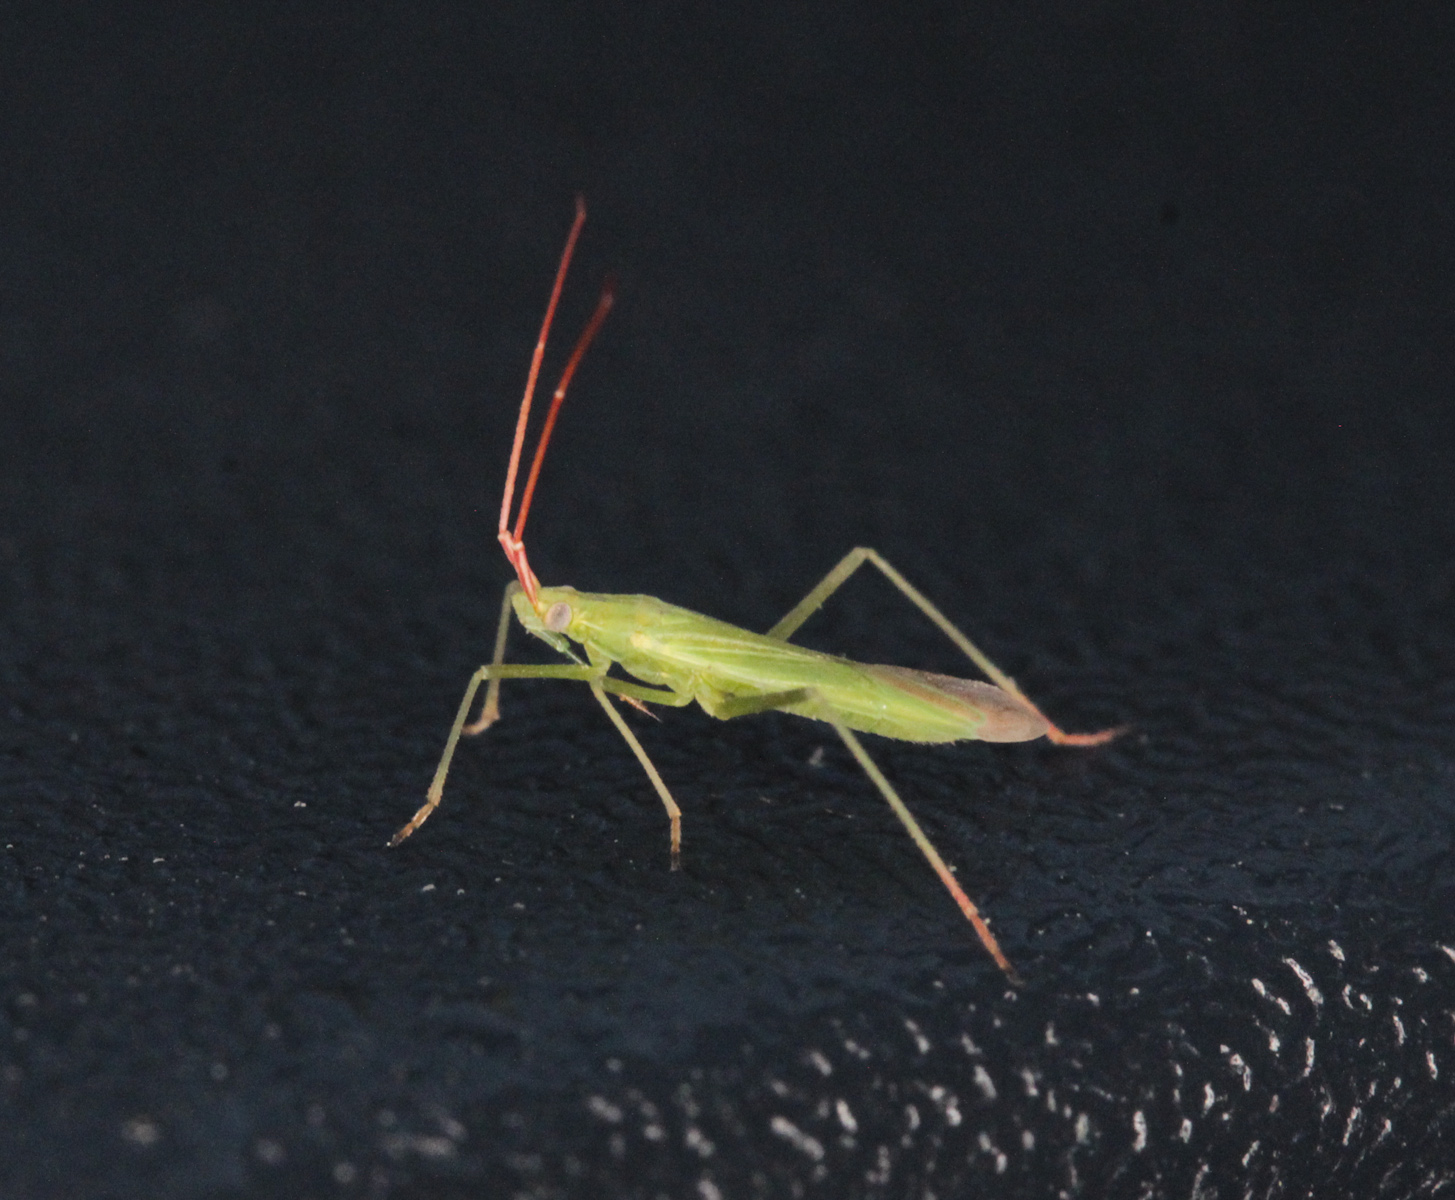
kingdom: Animalia
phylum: Arthropoda
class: Insecta
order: Hemiptera
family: Miridae
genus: Trigonotylus
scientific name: Trigonotylus caelestialium
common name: Rice leaf bug
